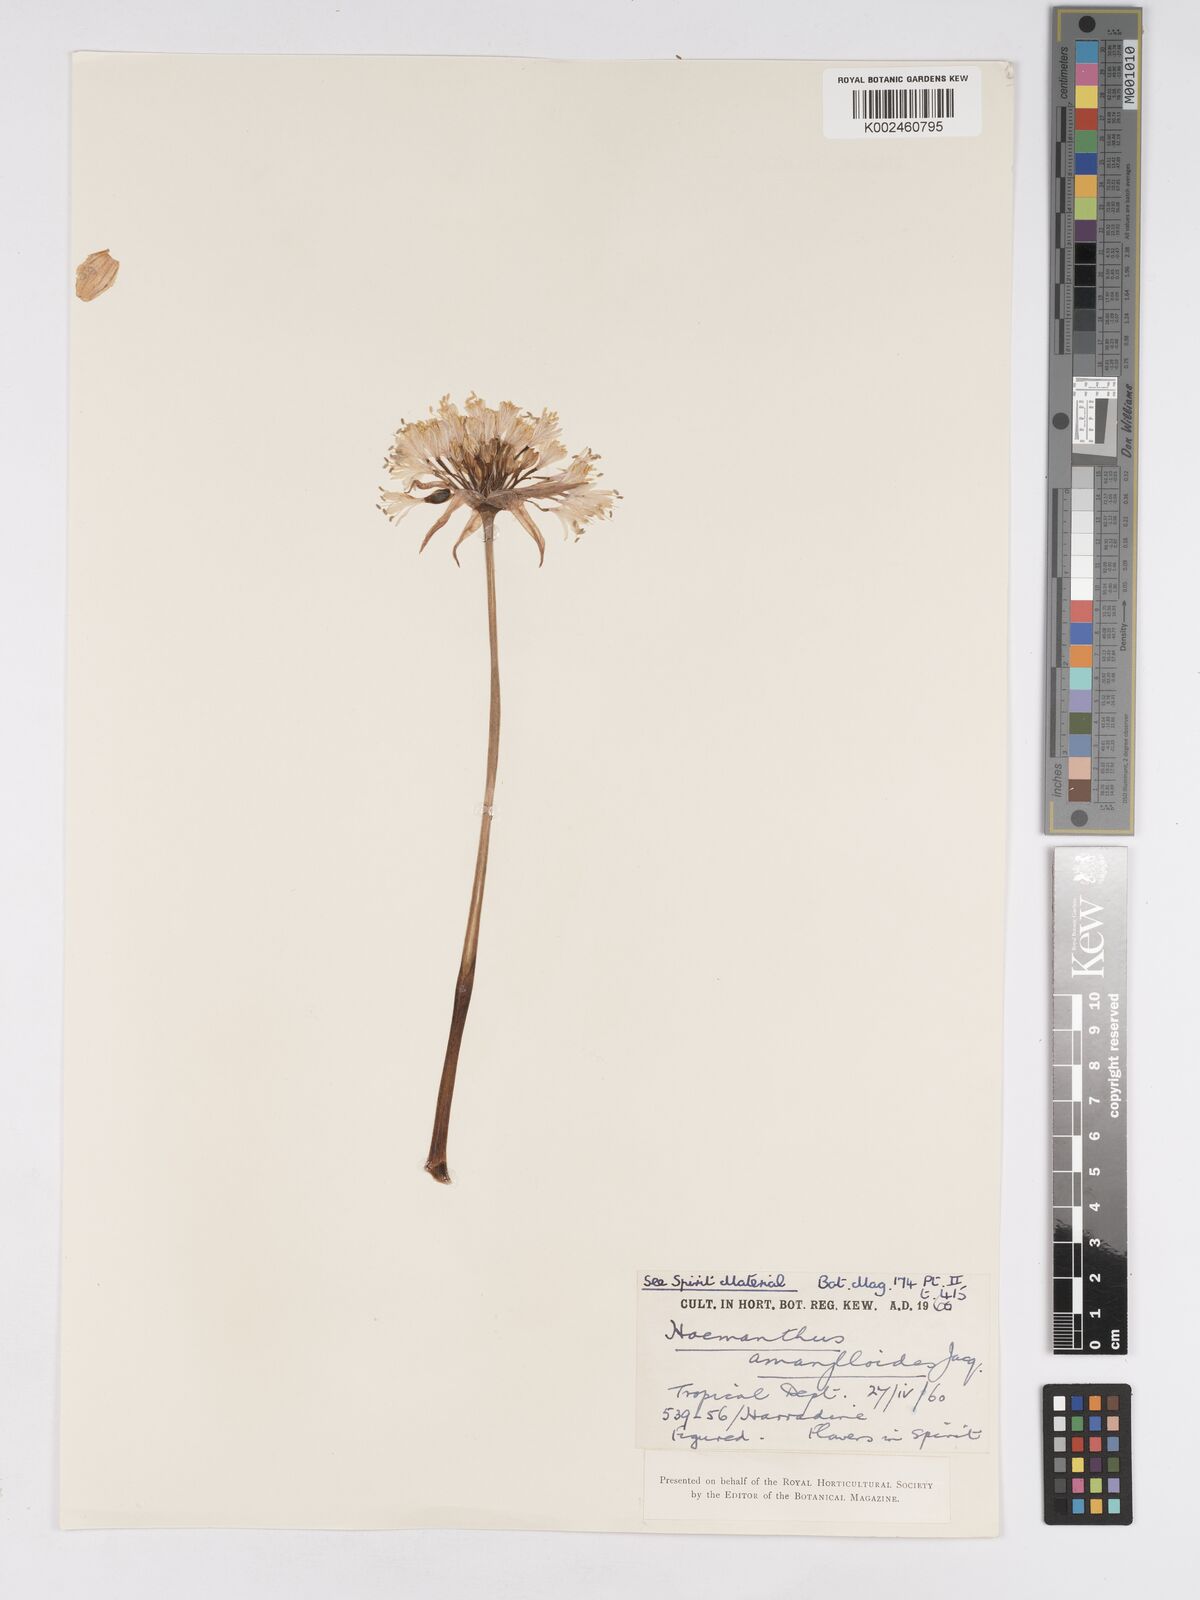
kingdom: Plantae
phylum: Tracheophyta
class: Liliopsida
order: Asparagales
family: Amaryllidaceae
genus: Haemanthus
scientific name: Haemanthus montanus
